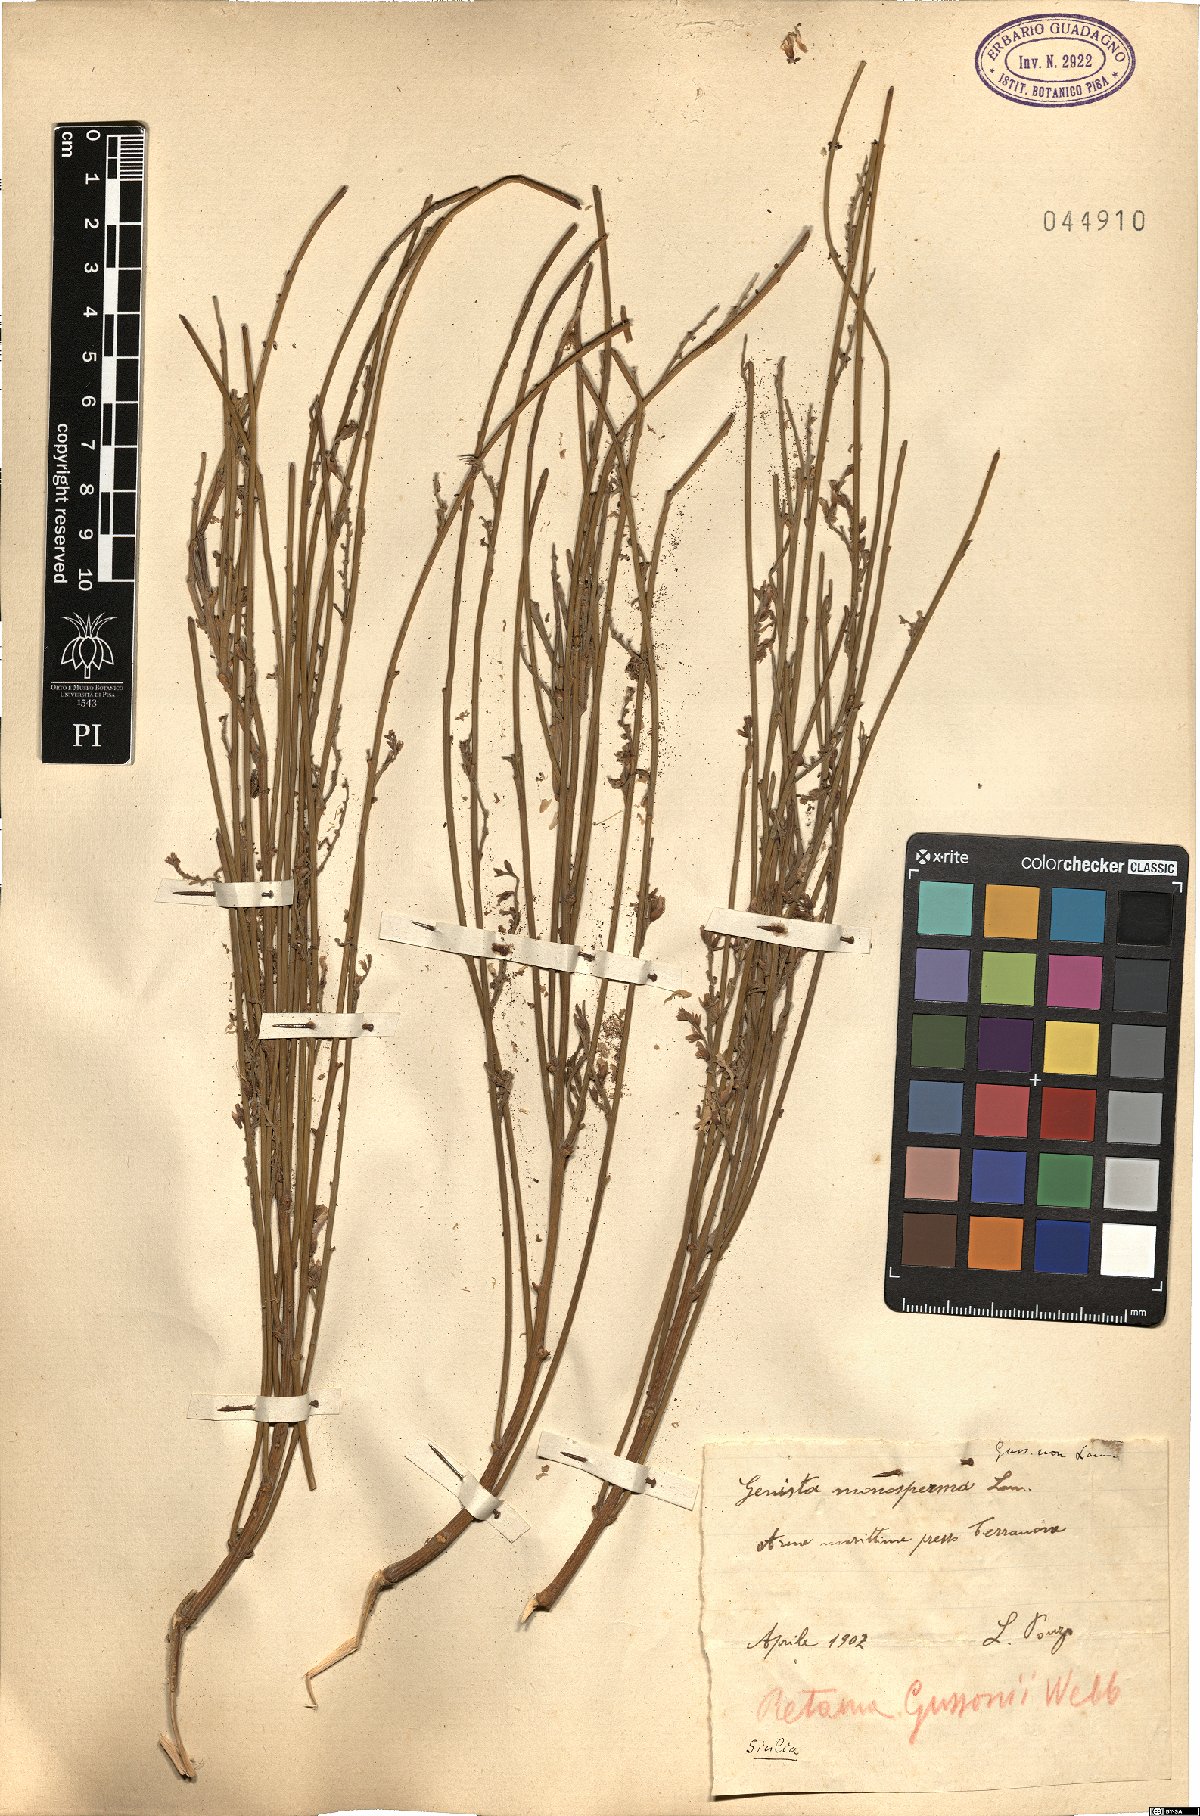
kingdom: Plantae
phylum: Tracheophyta
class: Magnoliopsida
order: Fabales
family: Fabaceae
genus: Retama
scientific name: Retama raetam
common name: Retem
